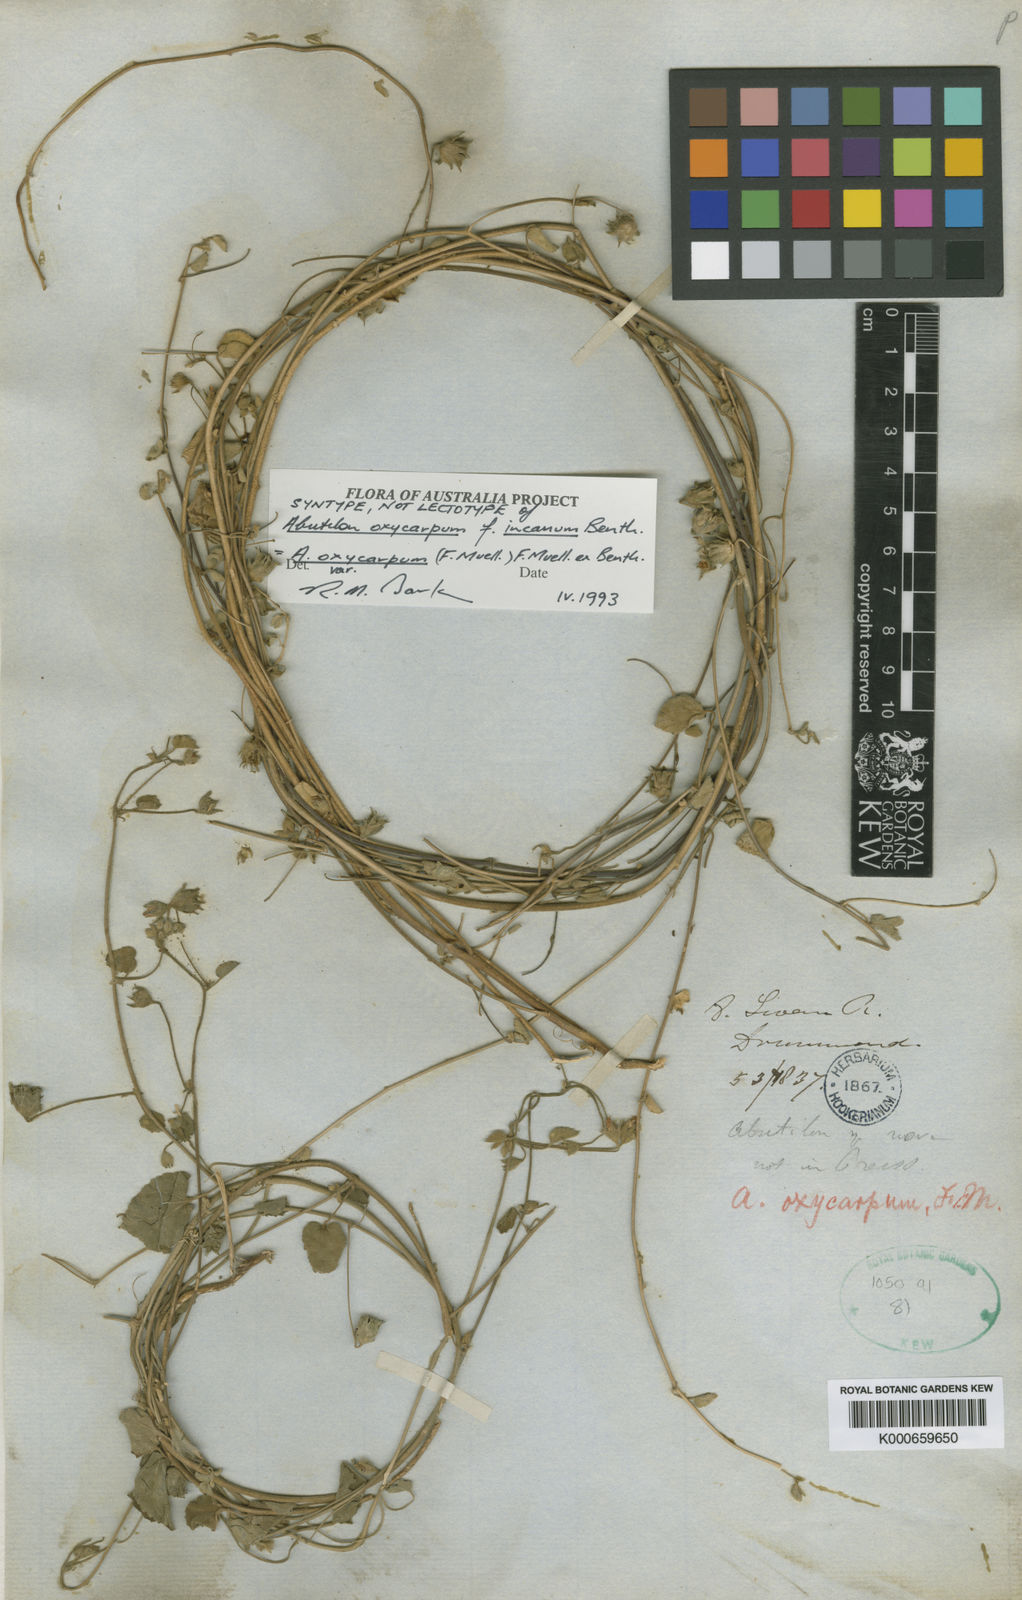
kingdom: Plantae
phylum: Tracheophyta
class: Magnoliopsida
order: Malvales
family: Malvaceae
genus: Abutilon
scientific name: Abutilon oxycarpum
